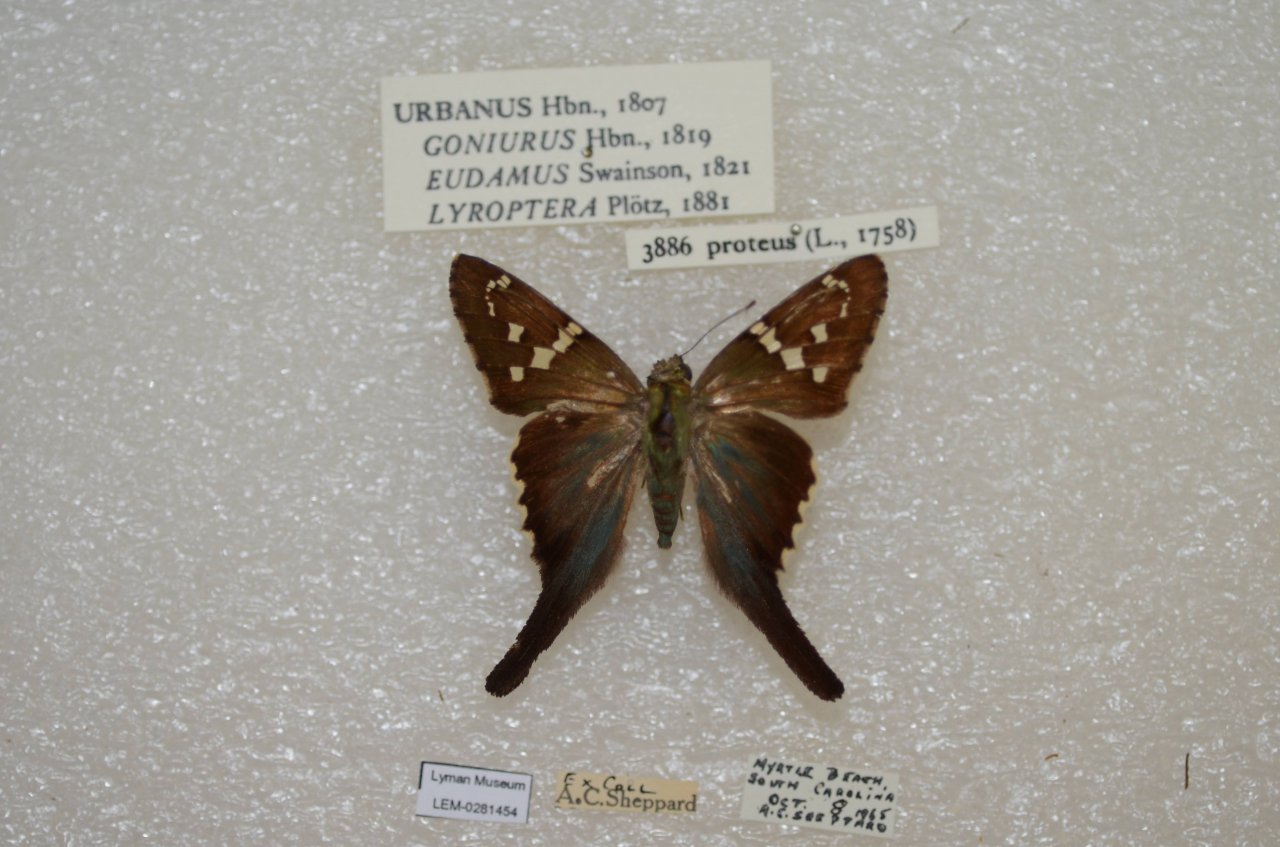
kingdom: Animalia
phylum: Arthropoda
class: Insecta
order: Lepidoptera
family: Hesperiidae
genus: Urbanus
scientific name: Urbanus proteus
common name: Long-tailed Skipper
